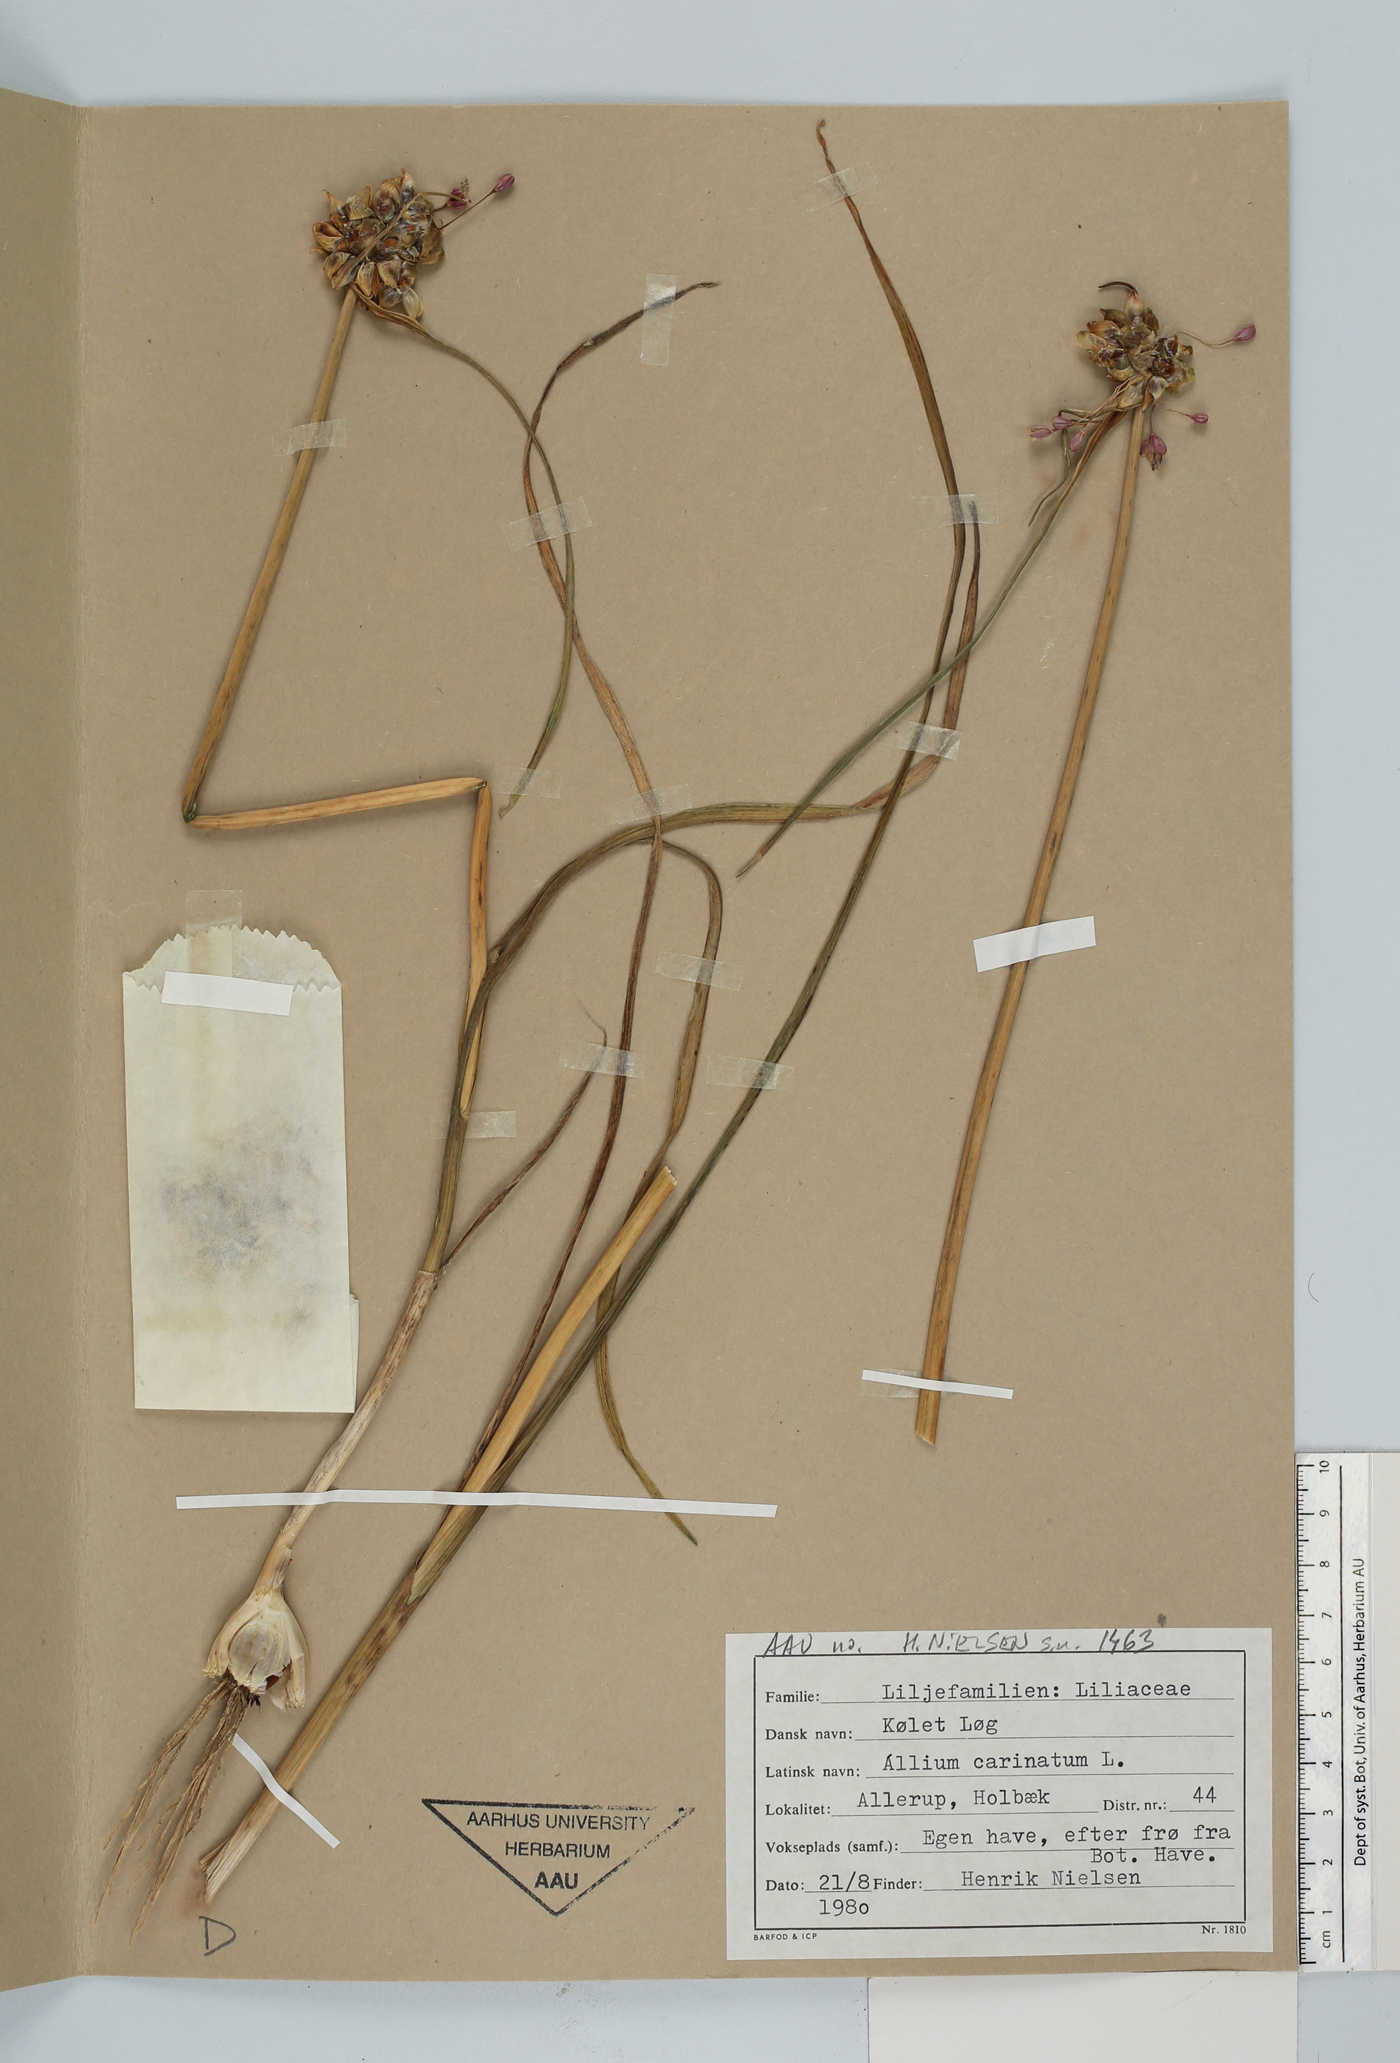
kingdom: Plantae
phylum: Tracheophyta
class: Liliopsida
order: Asparagales
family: Amaryllidaceae
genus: Allium
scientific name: Allium carinatum
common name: Keeled garlic
